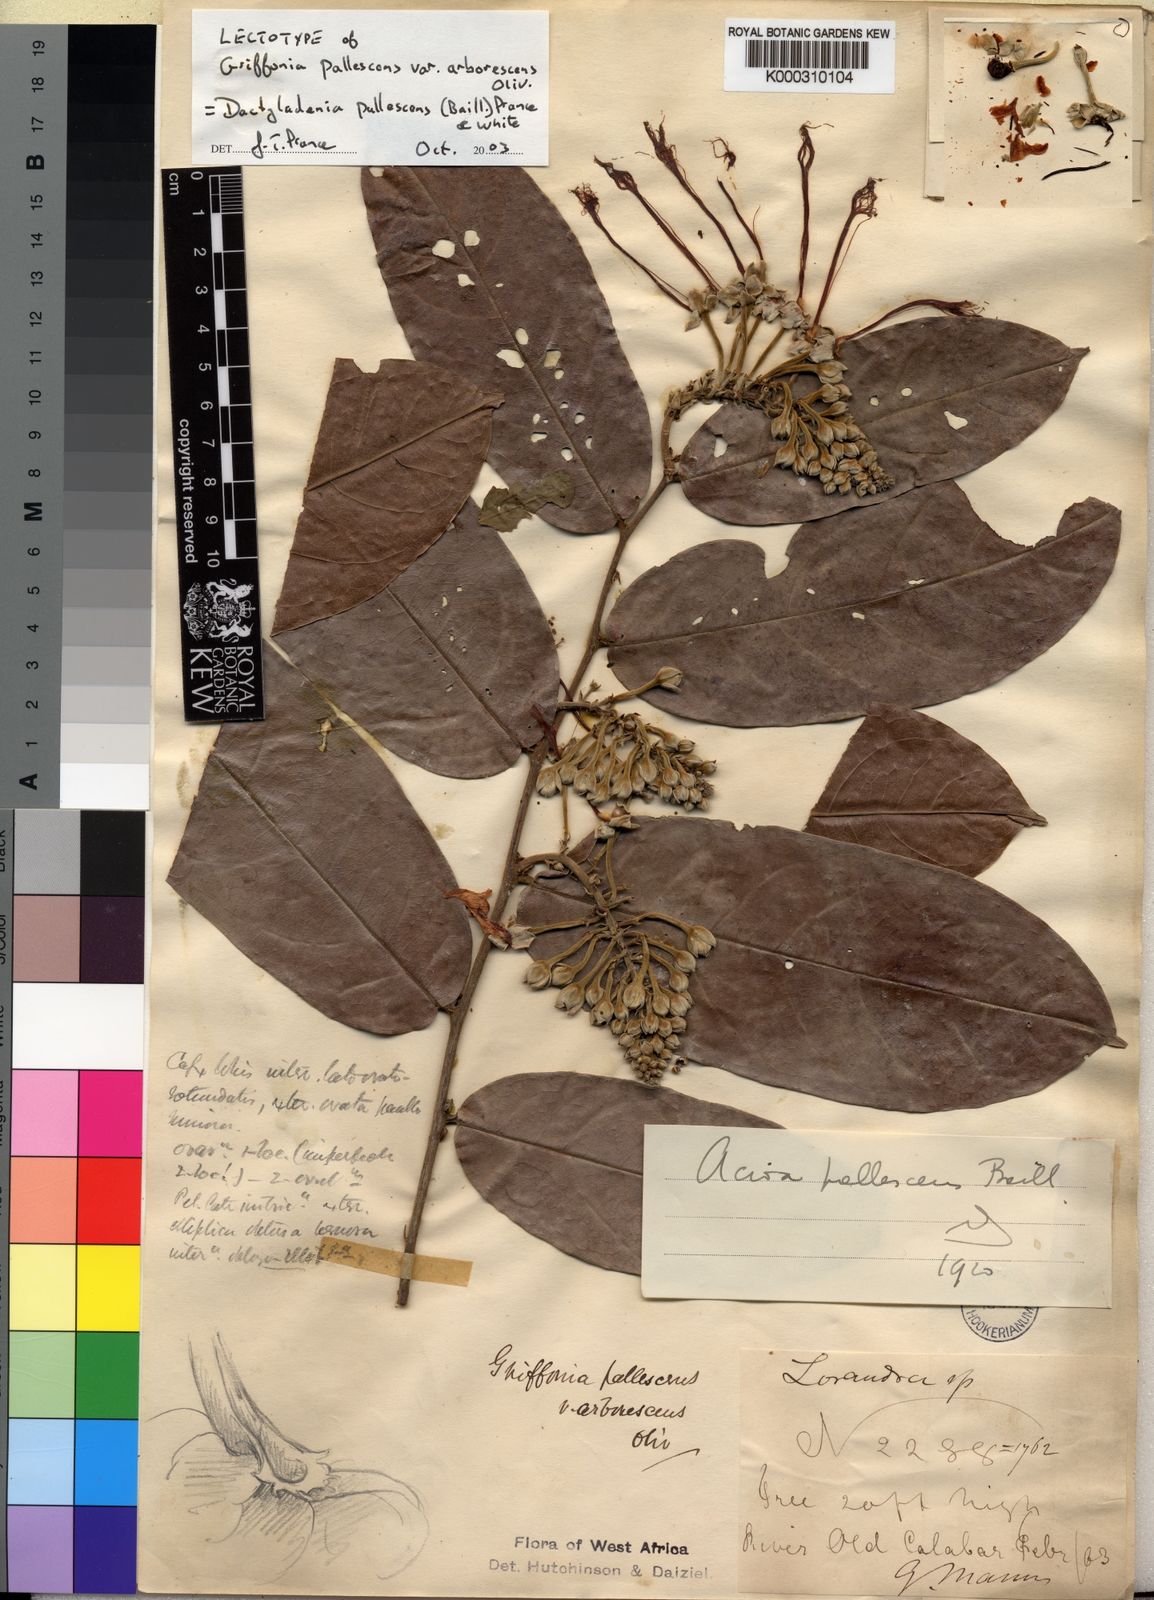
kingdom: Plantae
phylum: Tracheophyta
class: Magnoliopsida
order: Malpighiales
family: Chrysobalanaceae
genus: Dactyladenia
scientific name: Dactyladenia pallescens
